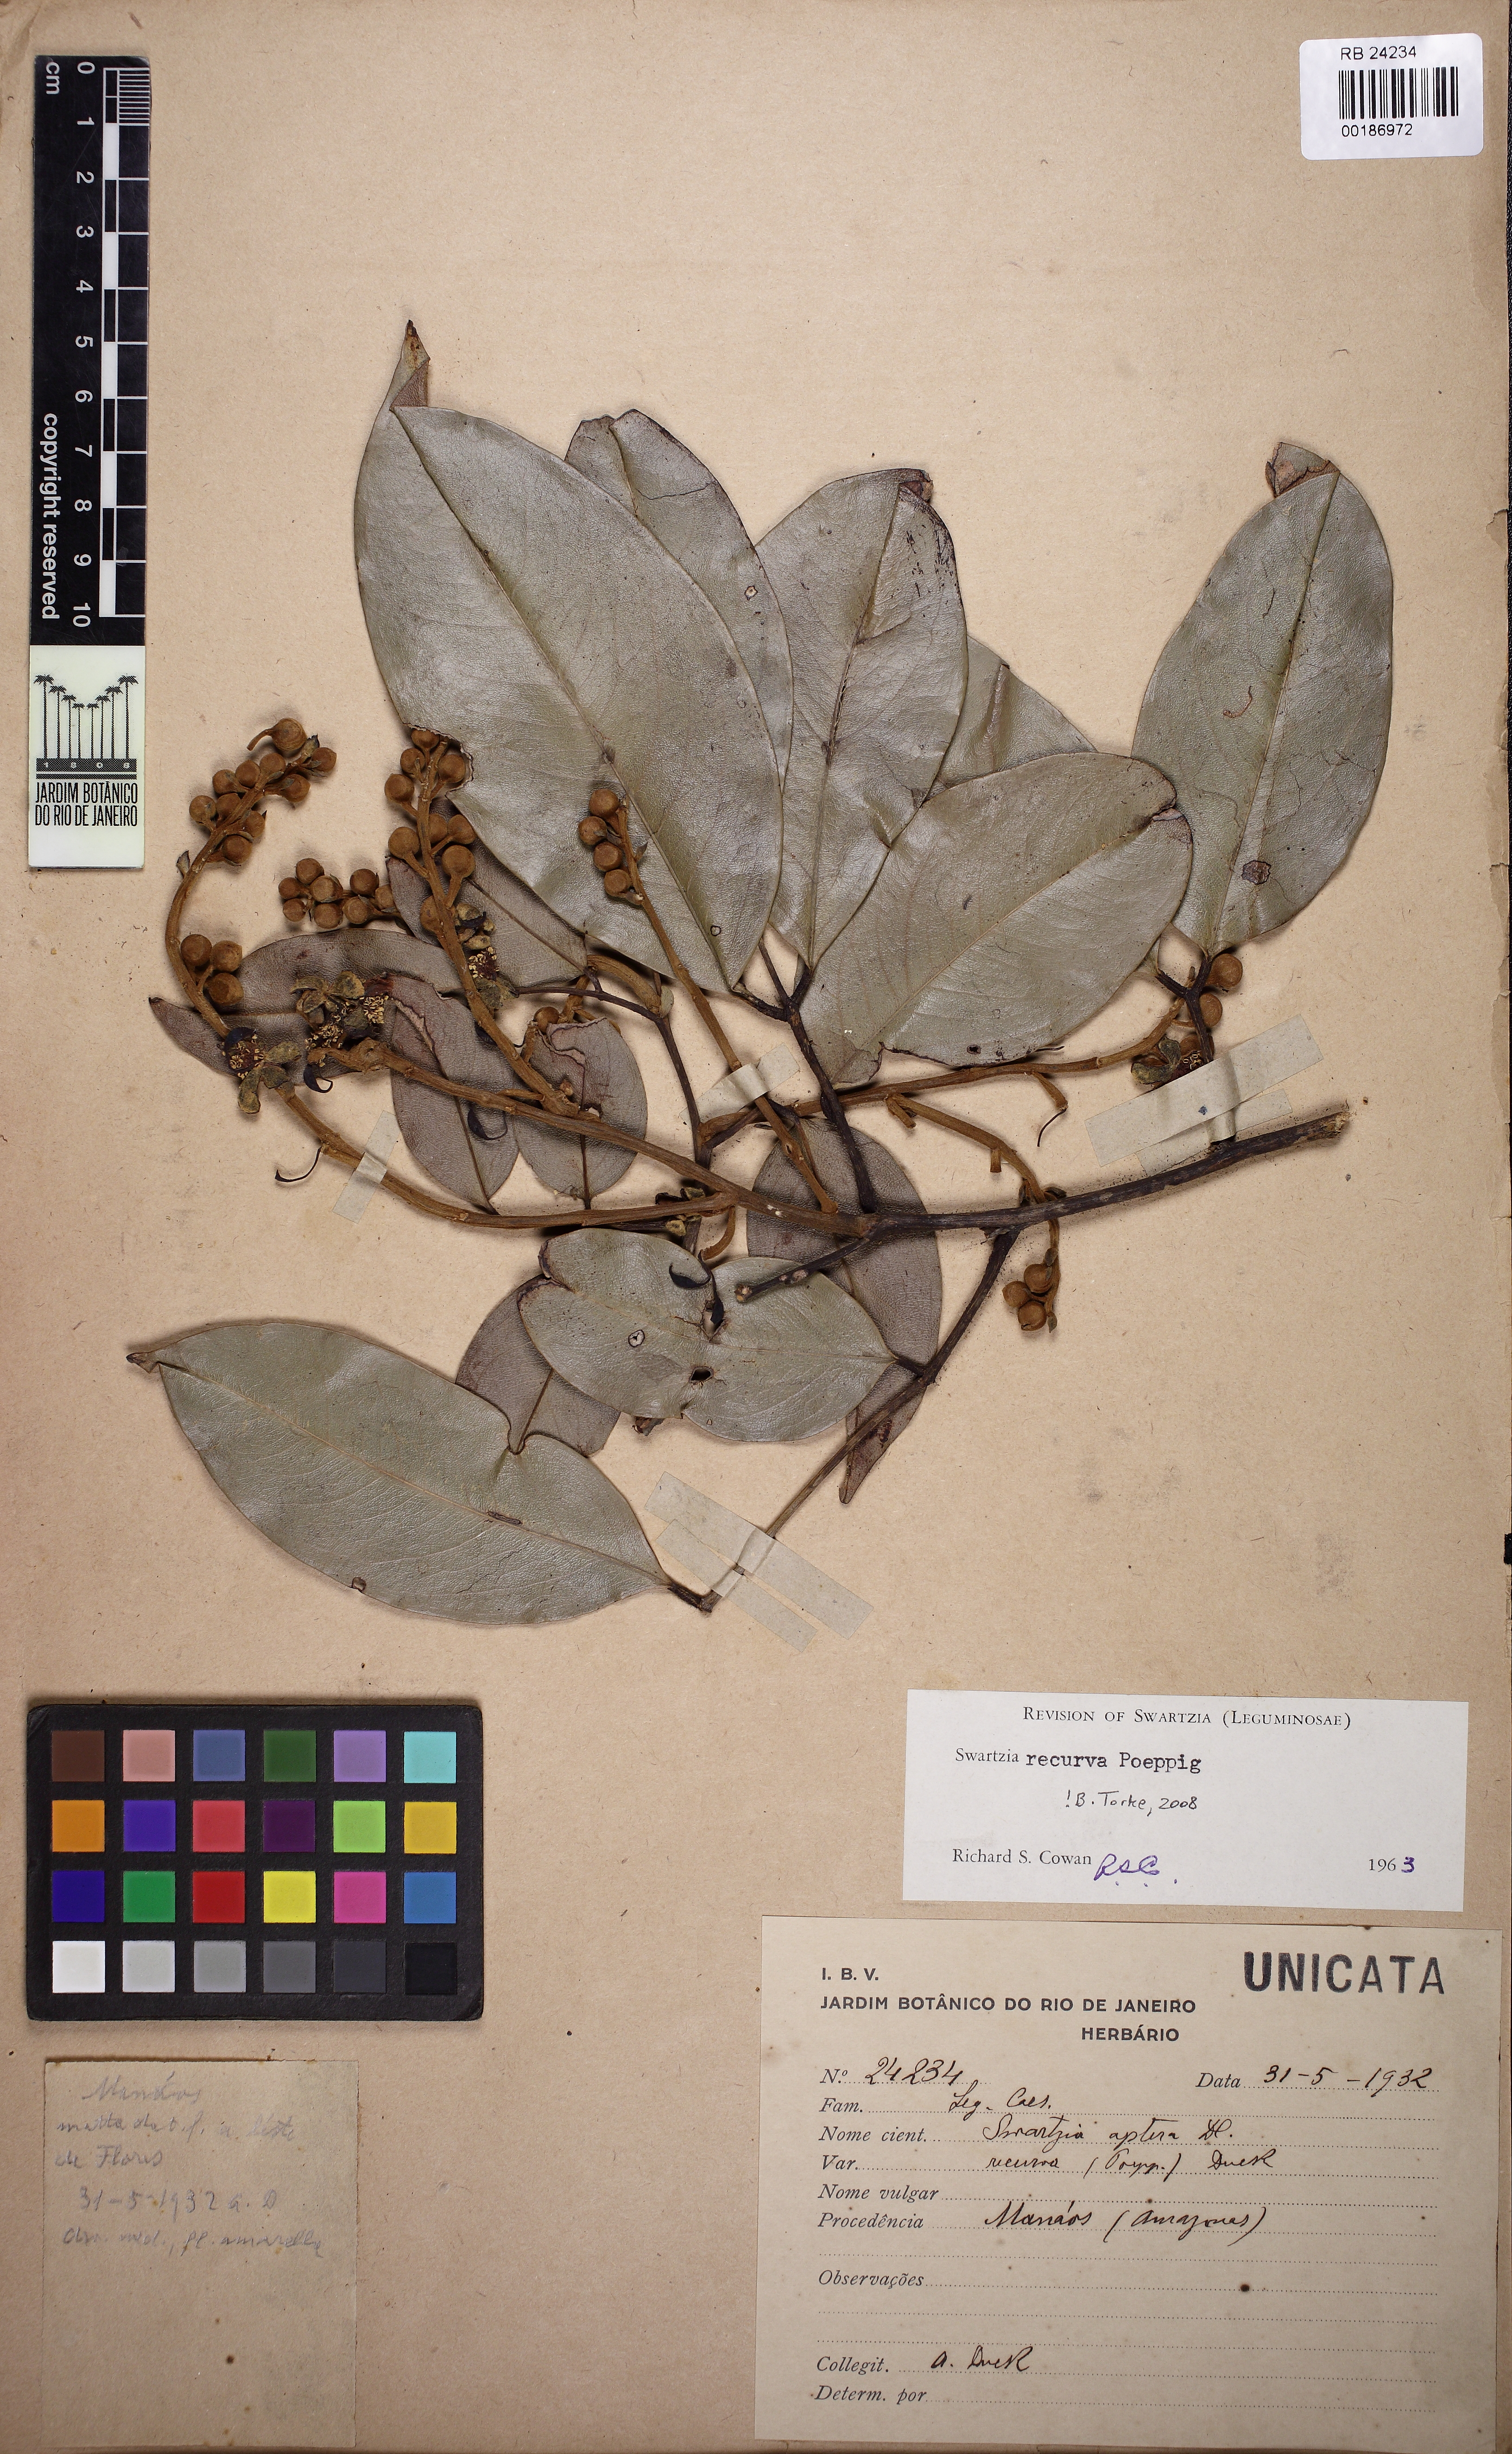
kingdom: Plantae
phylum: Tracheophyta
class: Magnoliopsida
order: Fabales
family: Fabaceae
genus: Swartzia
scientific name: Swartzia recurva
